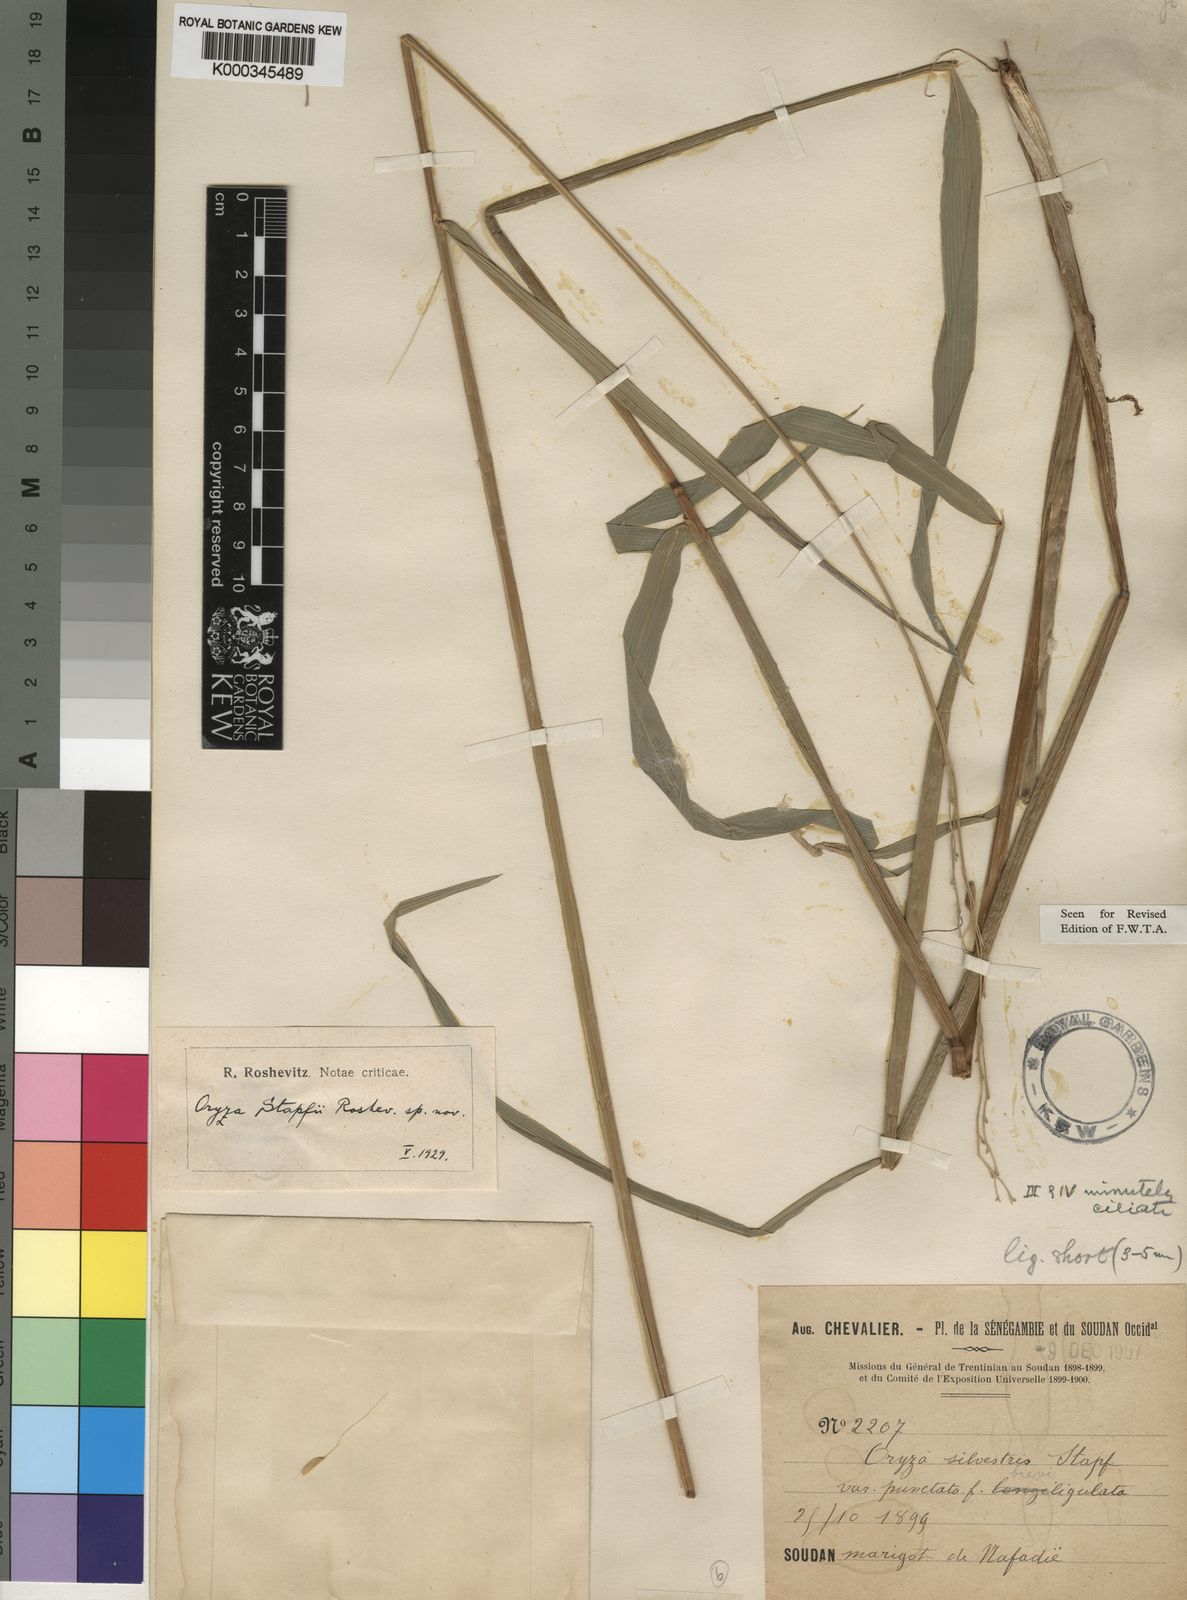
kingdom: Plantae
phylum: Tracheophyta
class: Liliopsida
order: Poales
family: Poaceae
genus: Oryza
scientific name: Oryza barthii
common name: Wild rice
